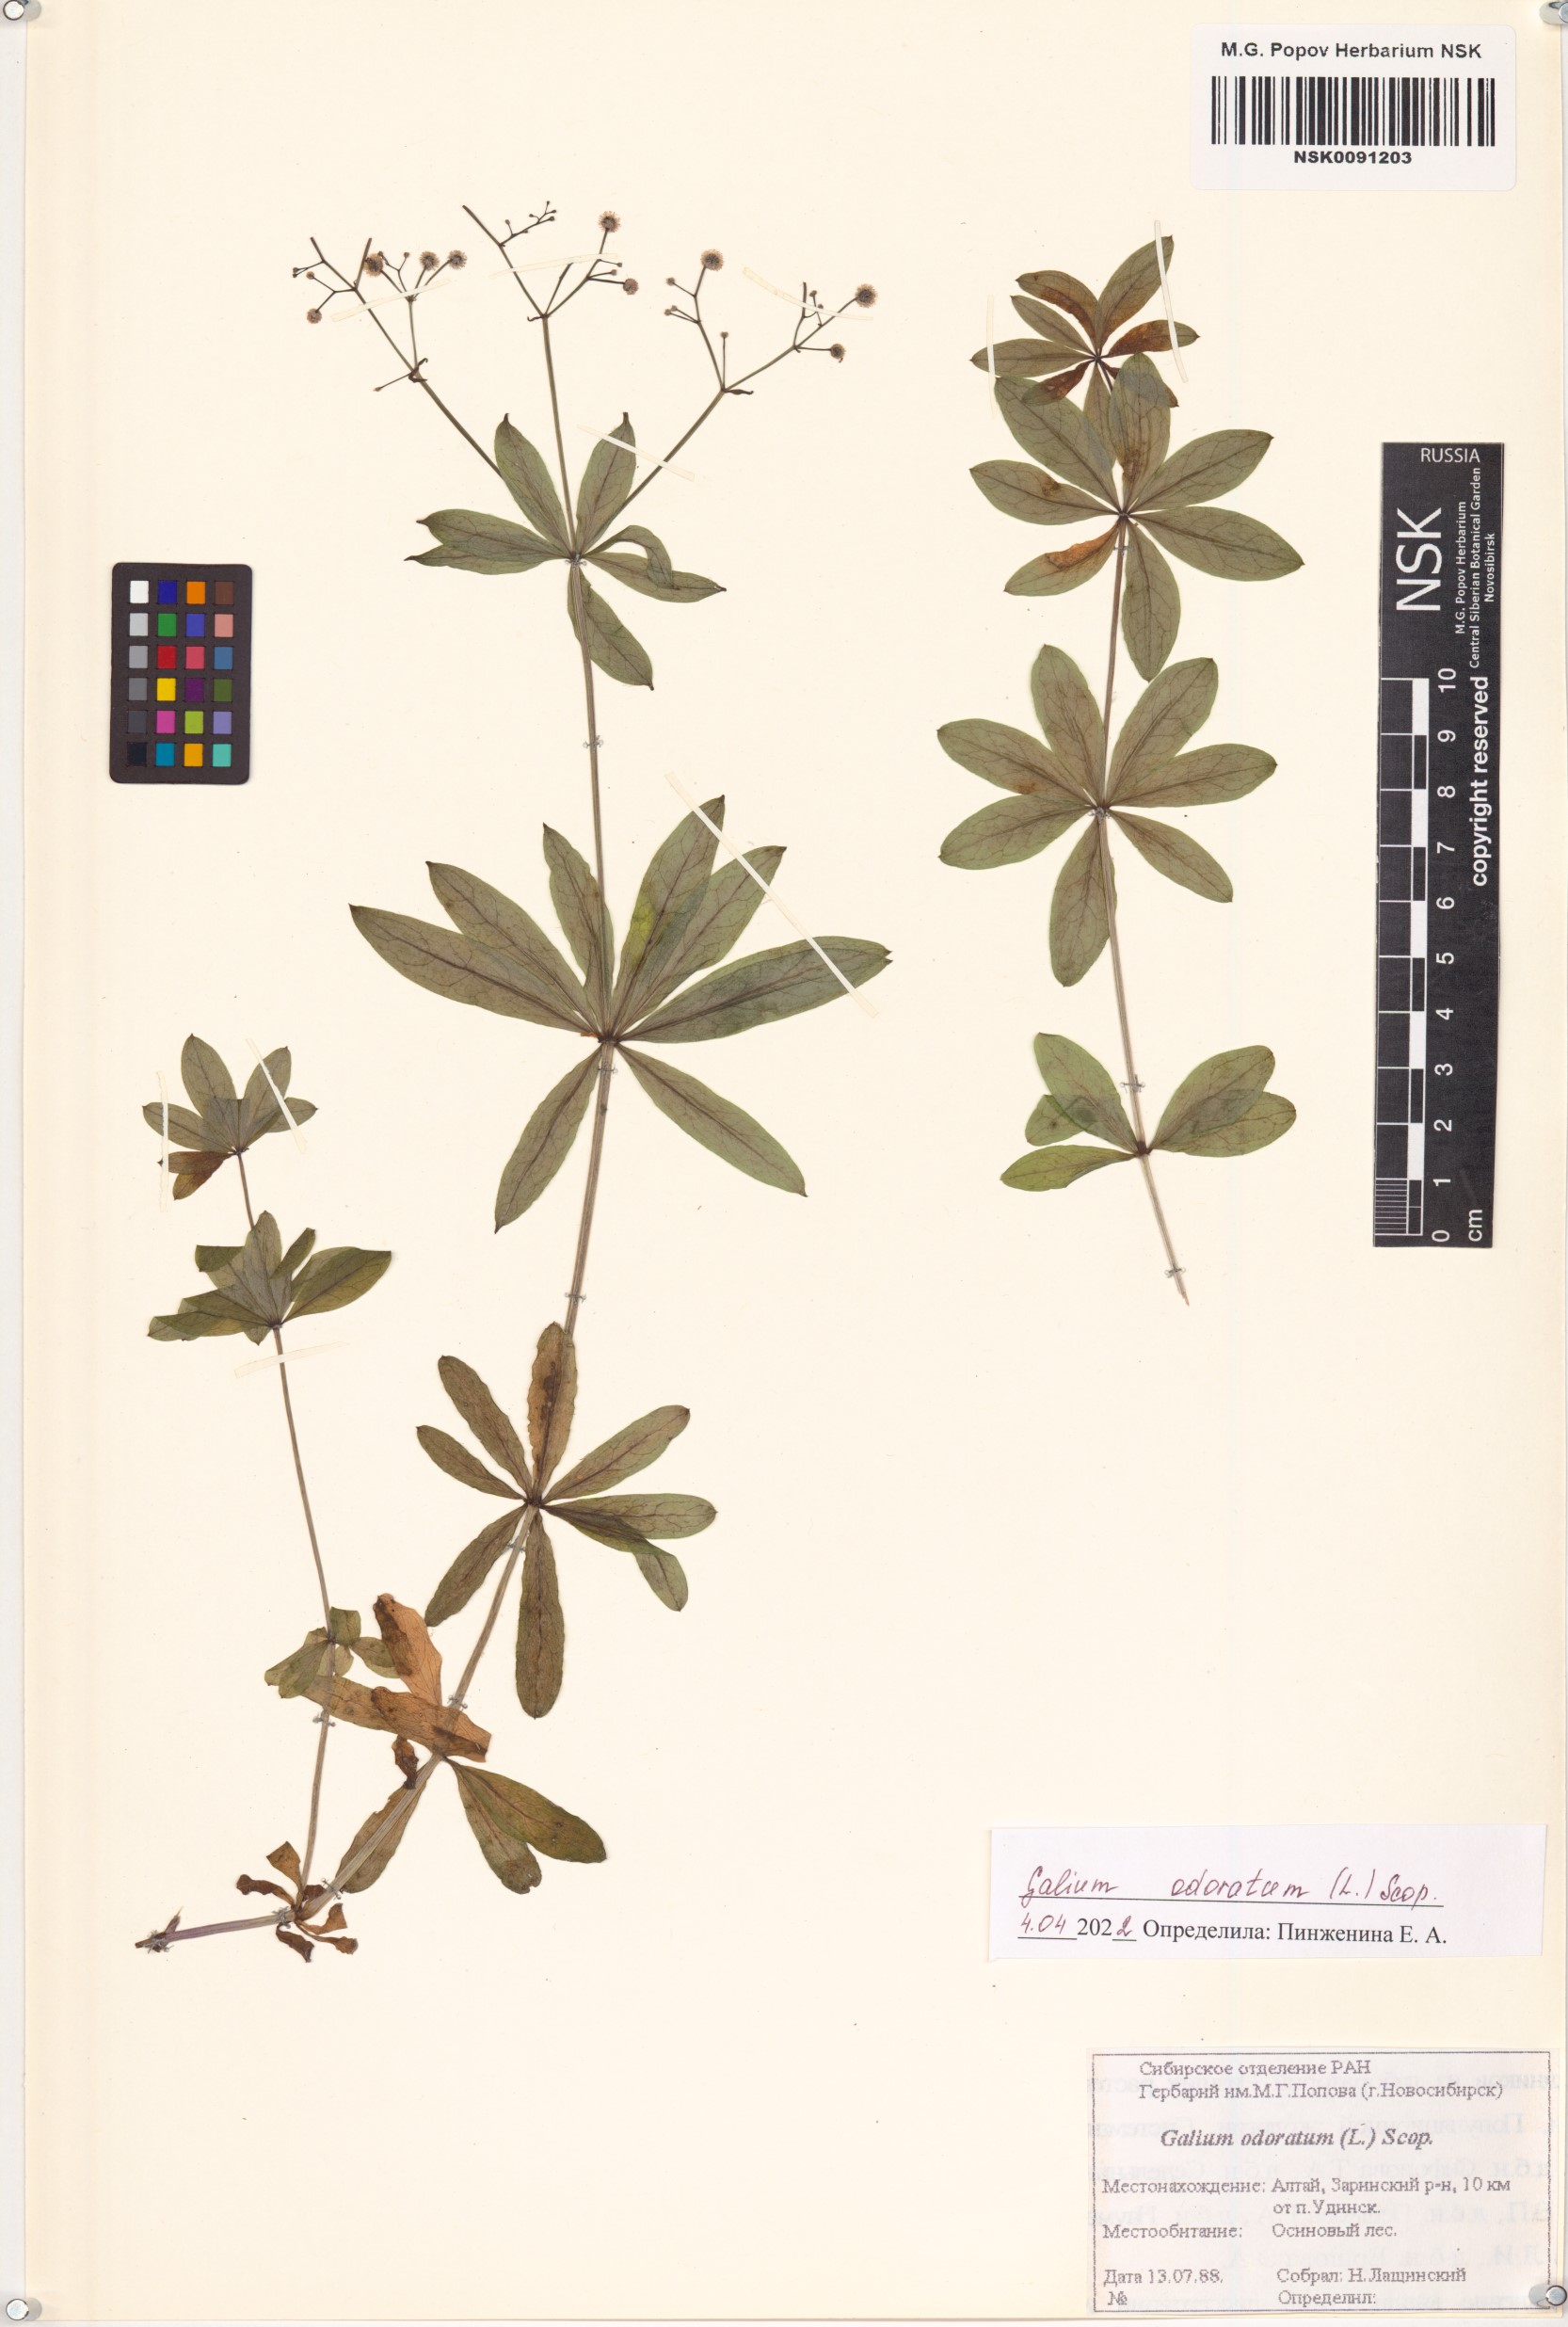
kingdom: Plantae
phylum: Tracheophyta
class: Magnoliopsida
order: Gentianales
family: Rubiaceae
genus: Galium
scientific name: Galium odoratum
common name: Sweet woodruff
